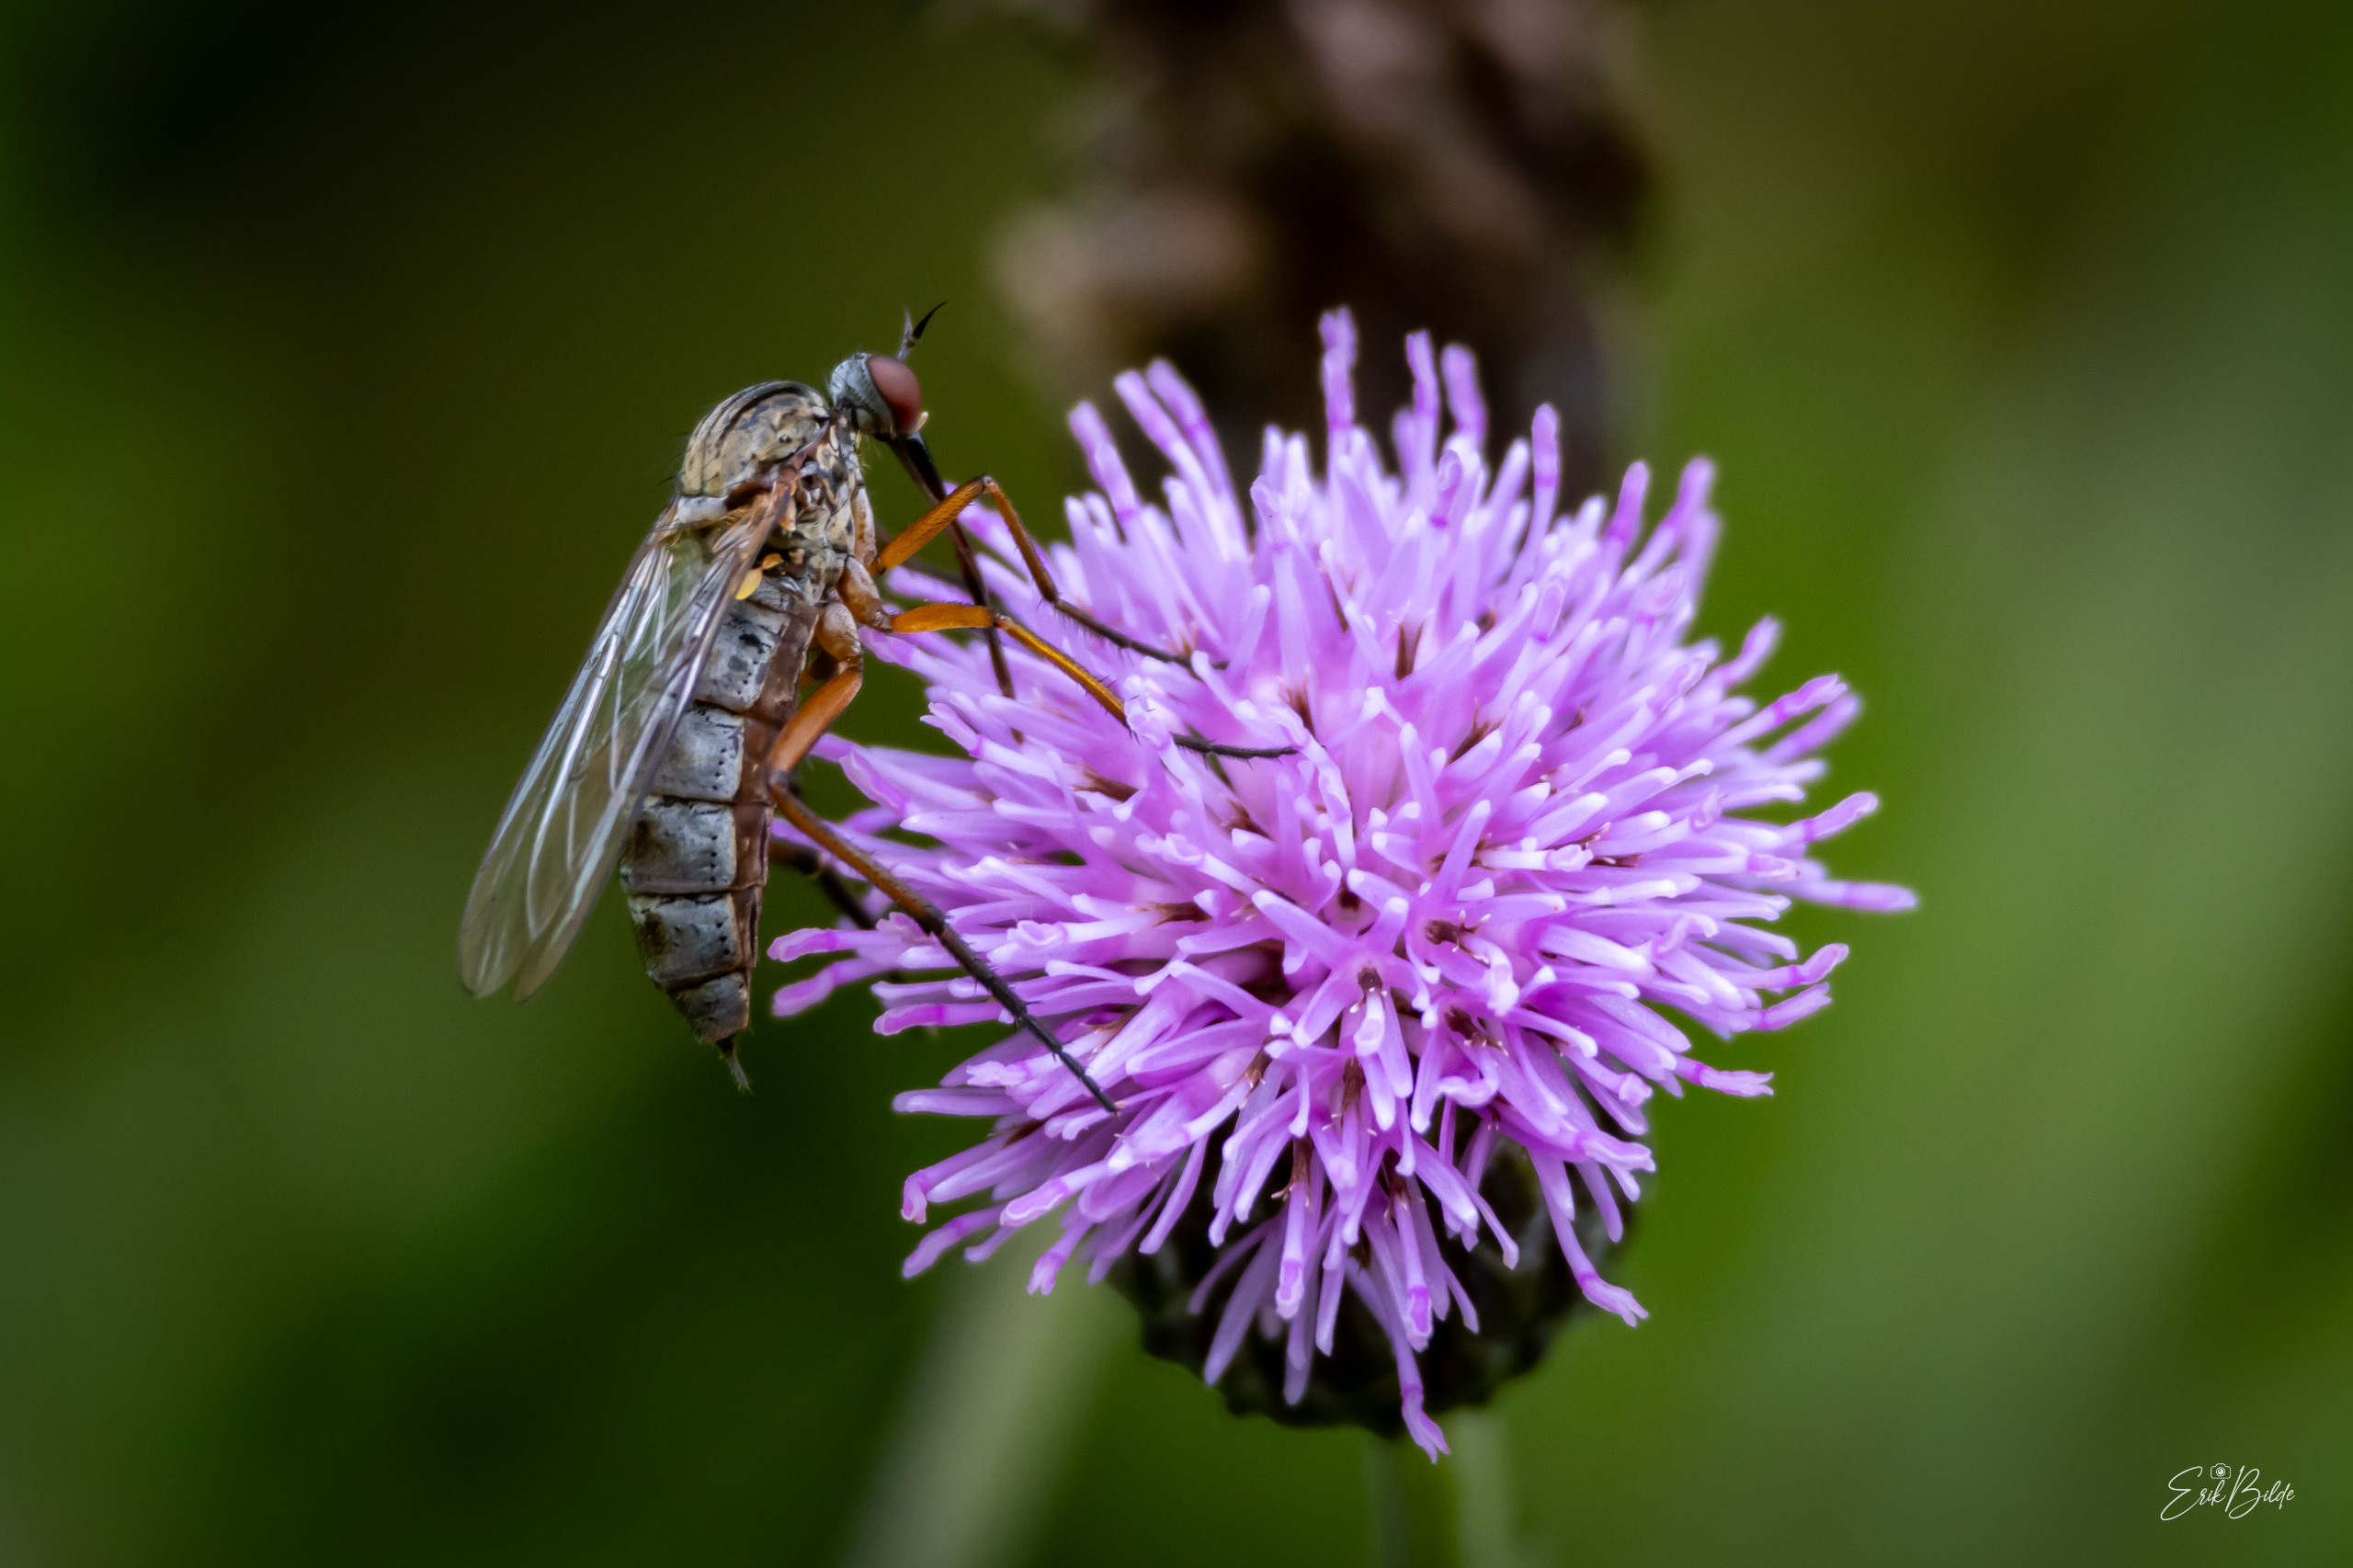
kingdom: Animalia
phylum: Arthropoda
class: Insecta
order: Diptera
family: Empididae
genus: Empis
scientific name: Empis livida
